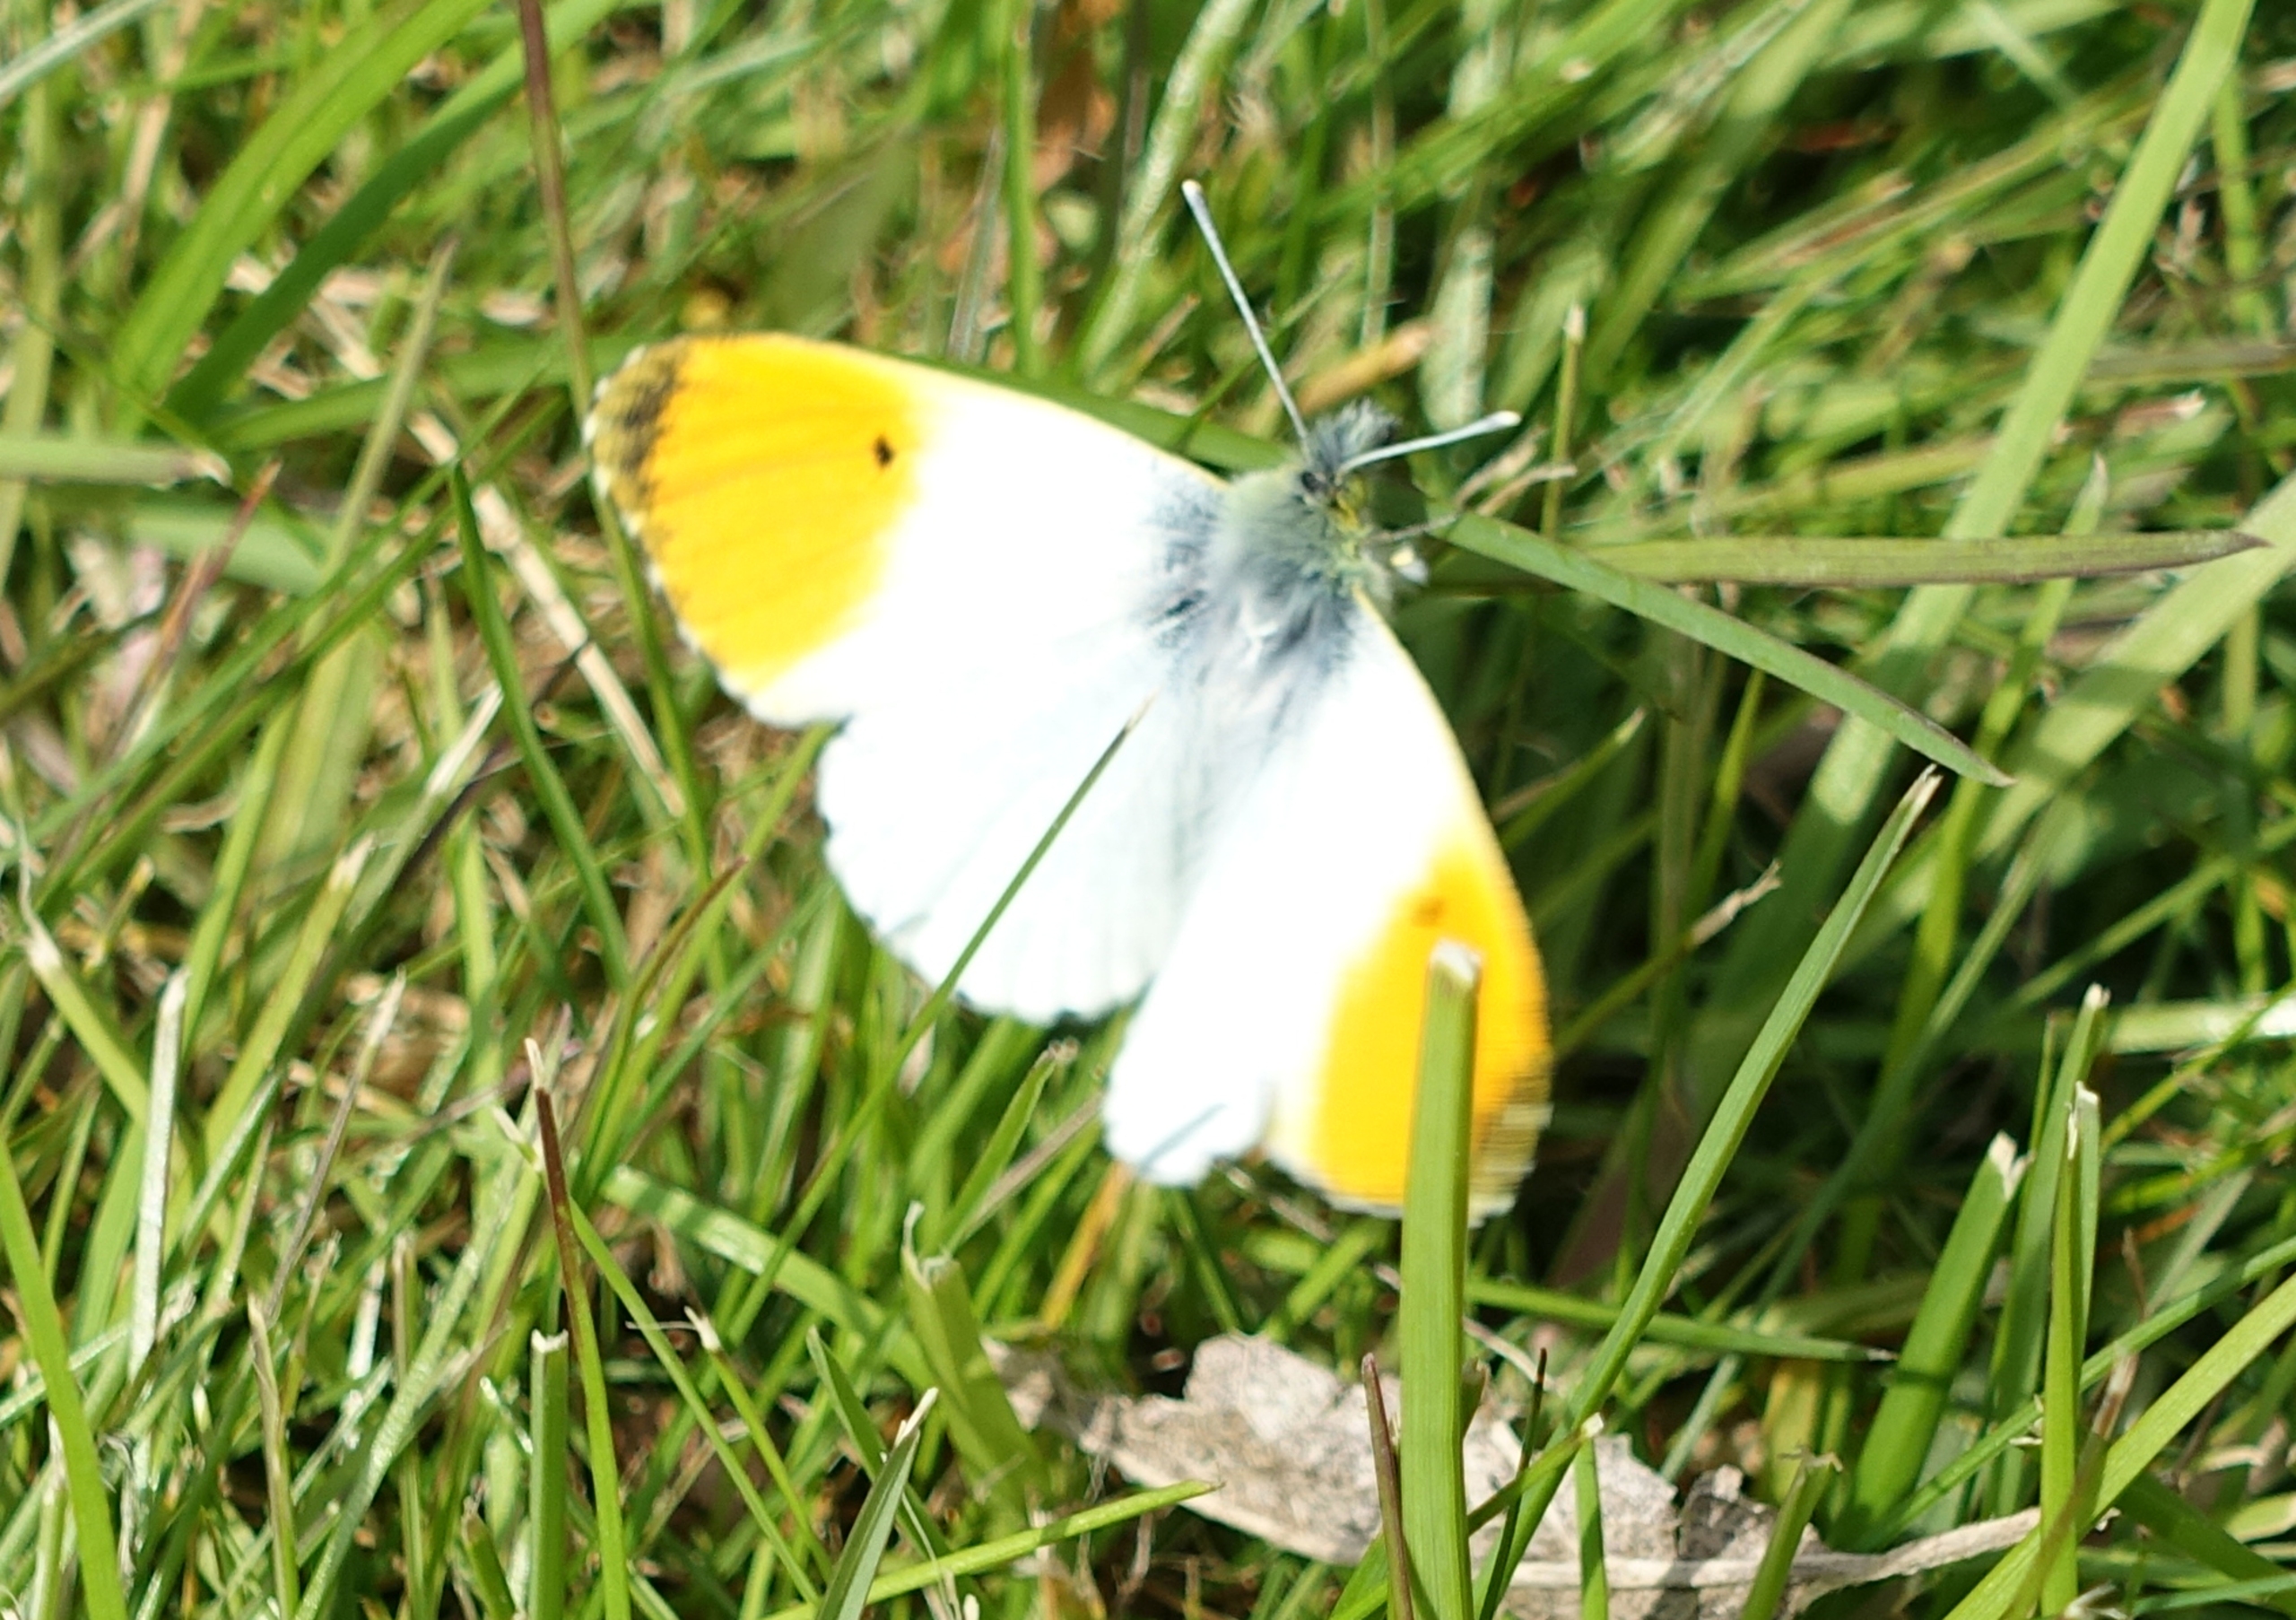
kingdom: Animalia
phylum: Arthropoda
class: Insecta
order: Lepidoptera
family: Pieridae
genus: Anthocharis
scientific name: Anthocharis cardamines
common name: Aurora
